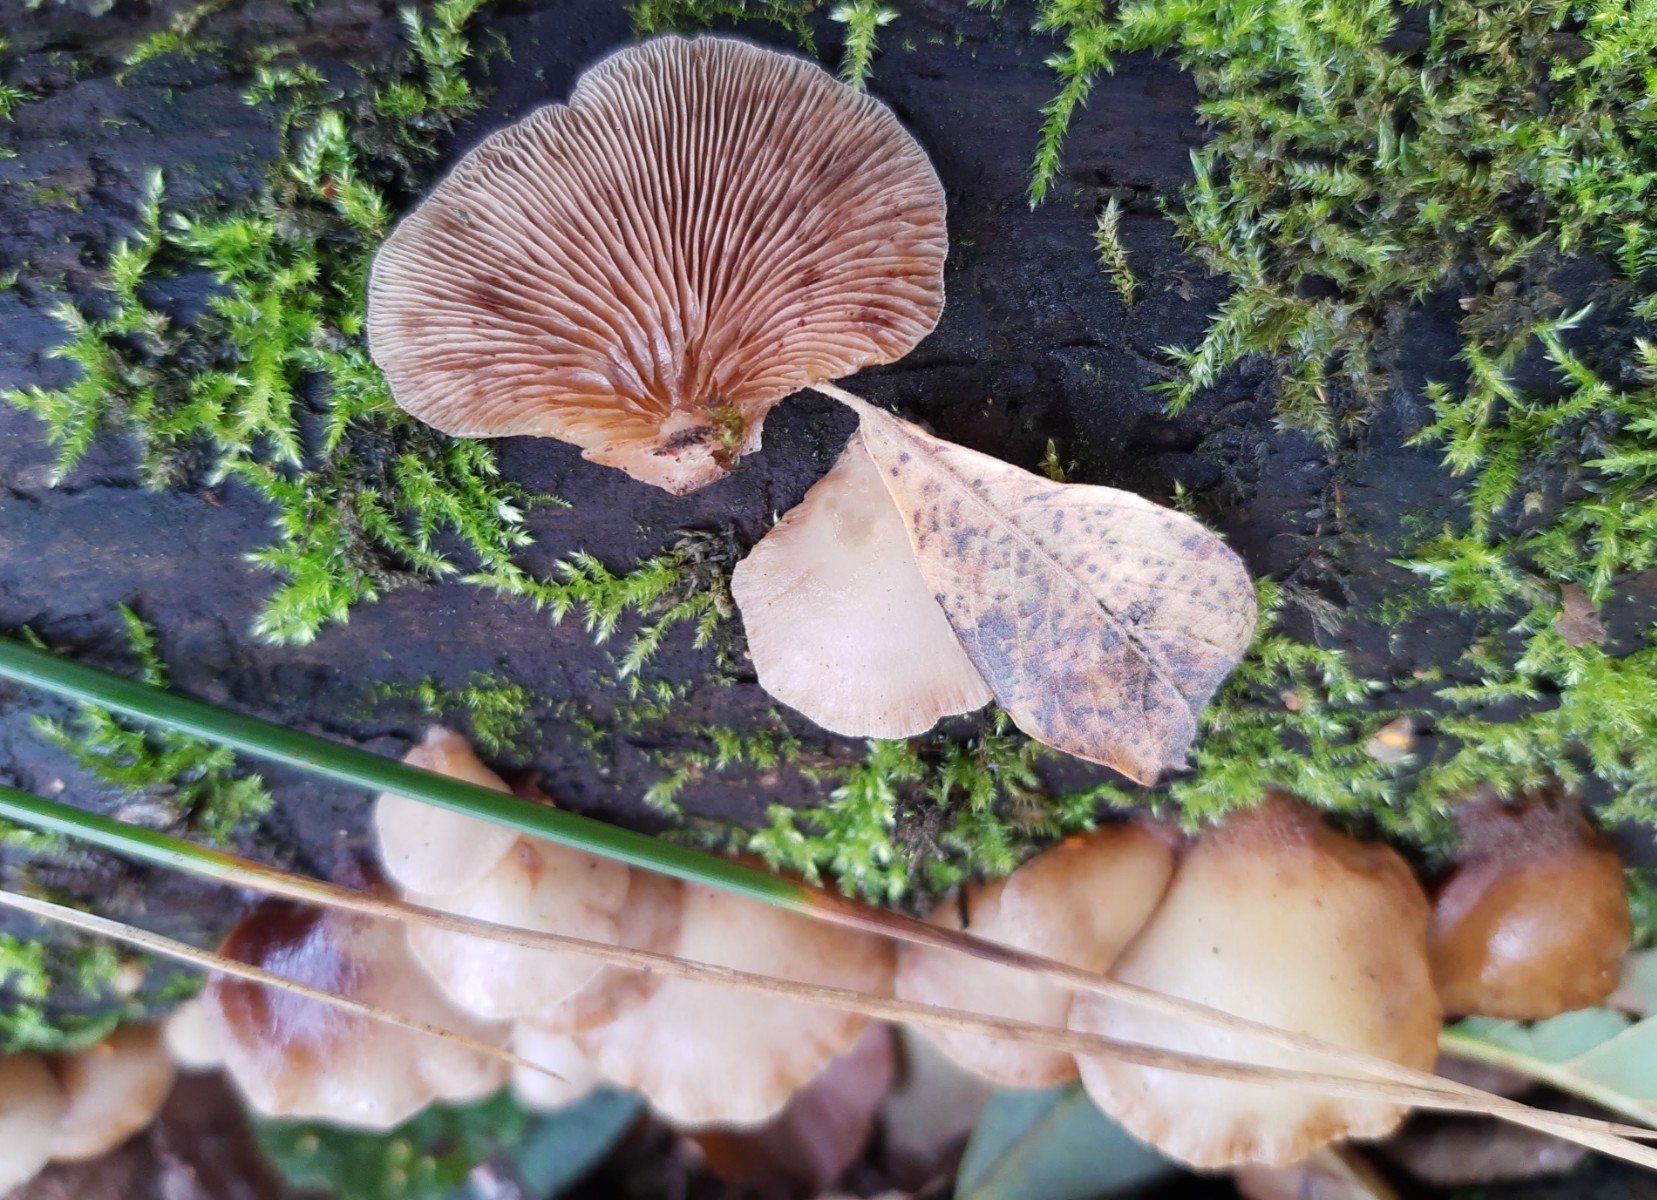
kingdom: Fungi
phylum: Basidiomycota
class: Agaricomycetes
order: Agaricales
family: Crepidotaceae
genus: Crepidotus
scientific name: Crepidotus mollis
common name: blød muslingesvamp
